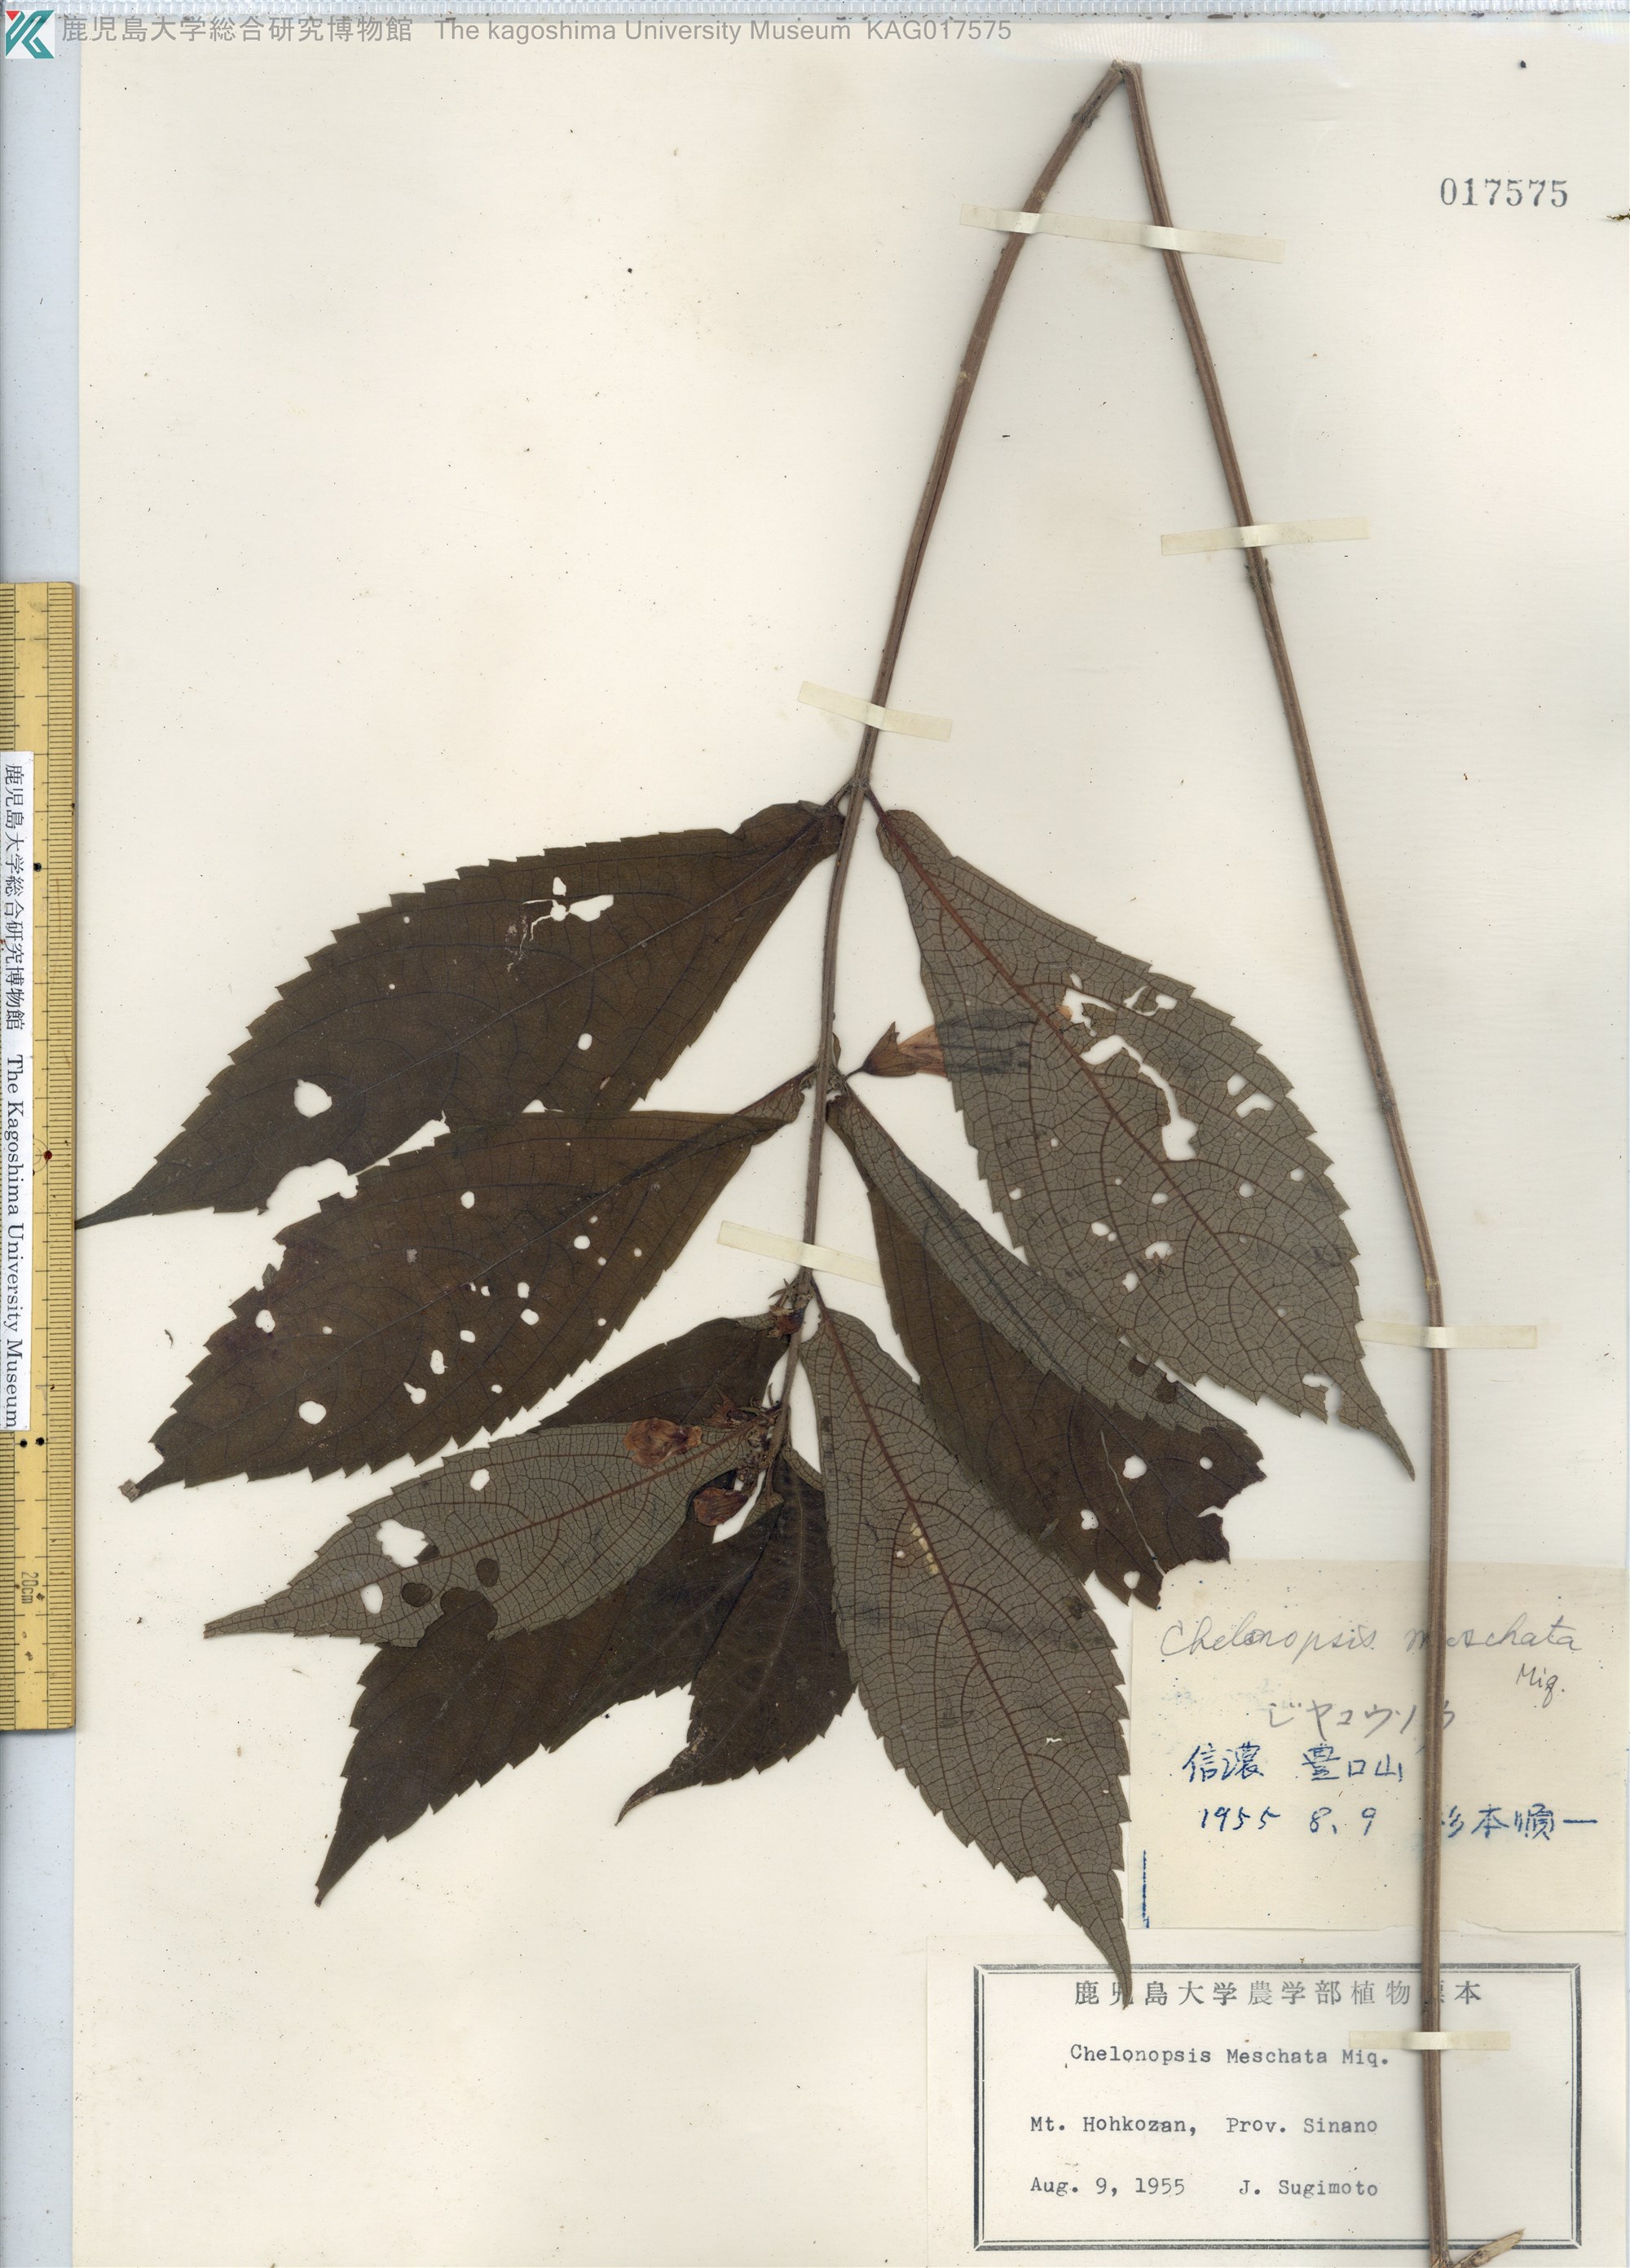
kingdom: Plantae
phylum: Tracheophyta
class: Magnoliopsida
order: Lamiales
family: Lamiaceae
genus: Chelonopsis
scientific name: Chelonopsis moschata
